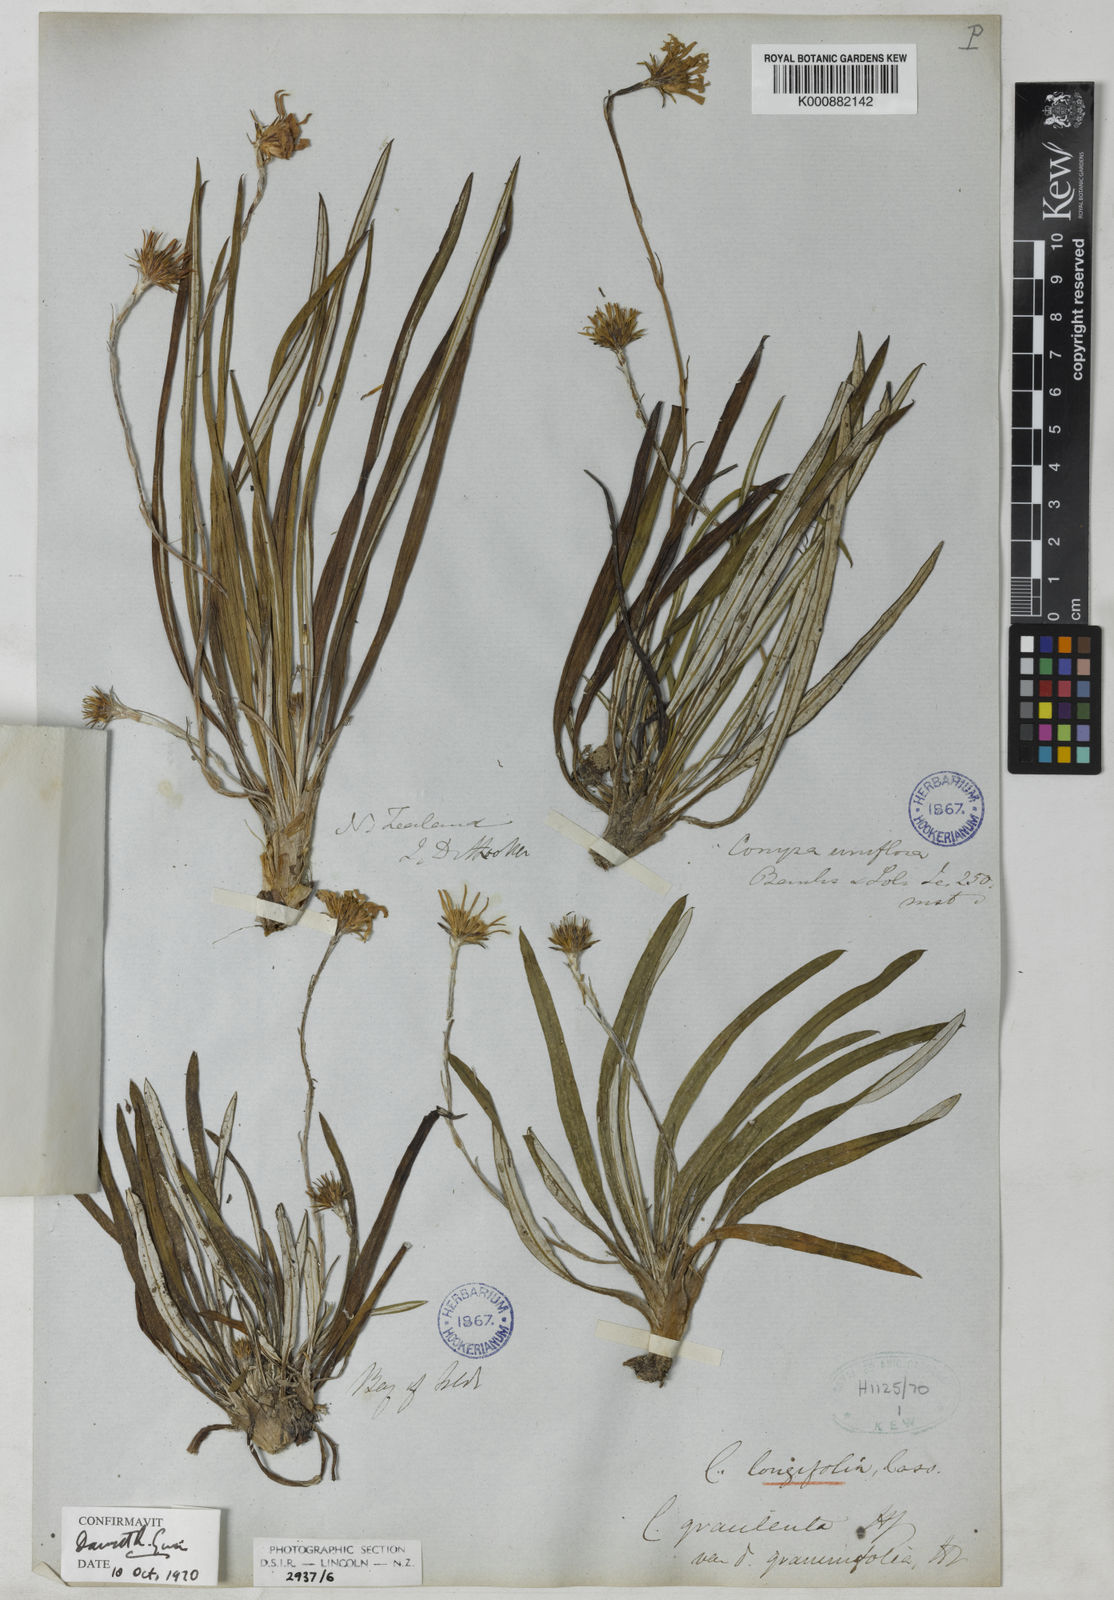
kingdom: Plantae
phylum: Tracheophyta
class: Magnoliopsida
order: Asterales
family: Asteraceae
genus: Celmisia
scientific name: Celmisia graminifolia
